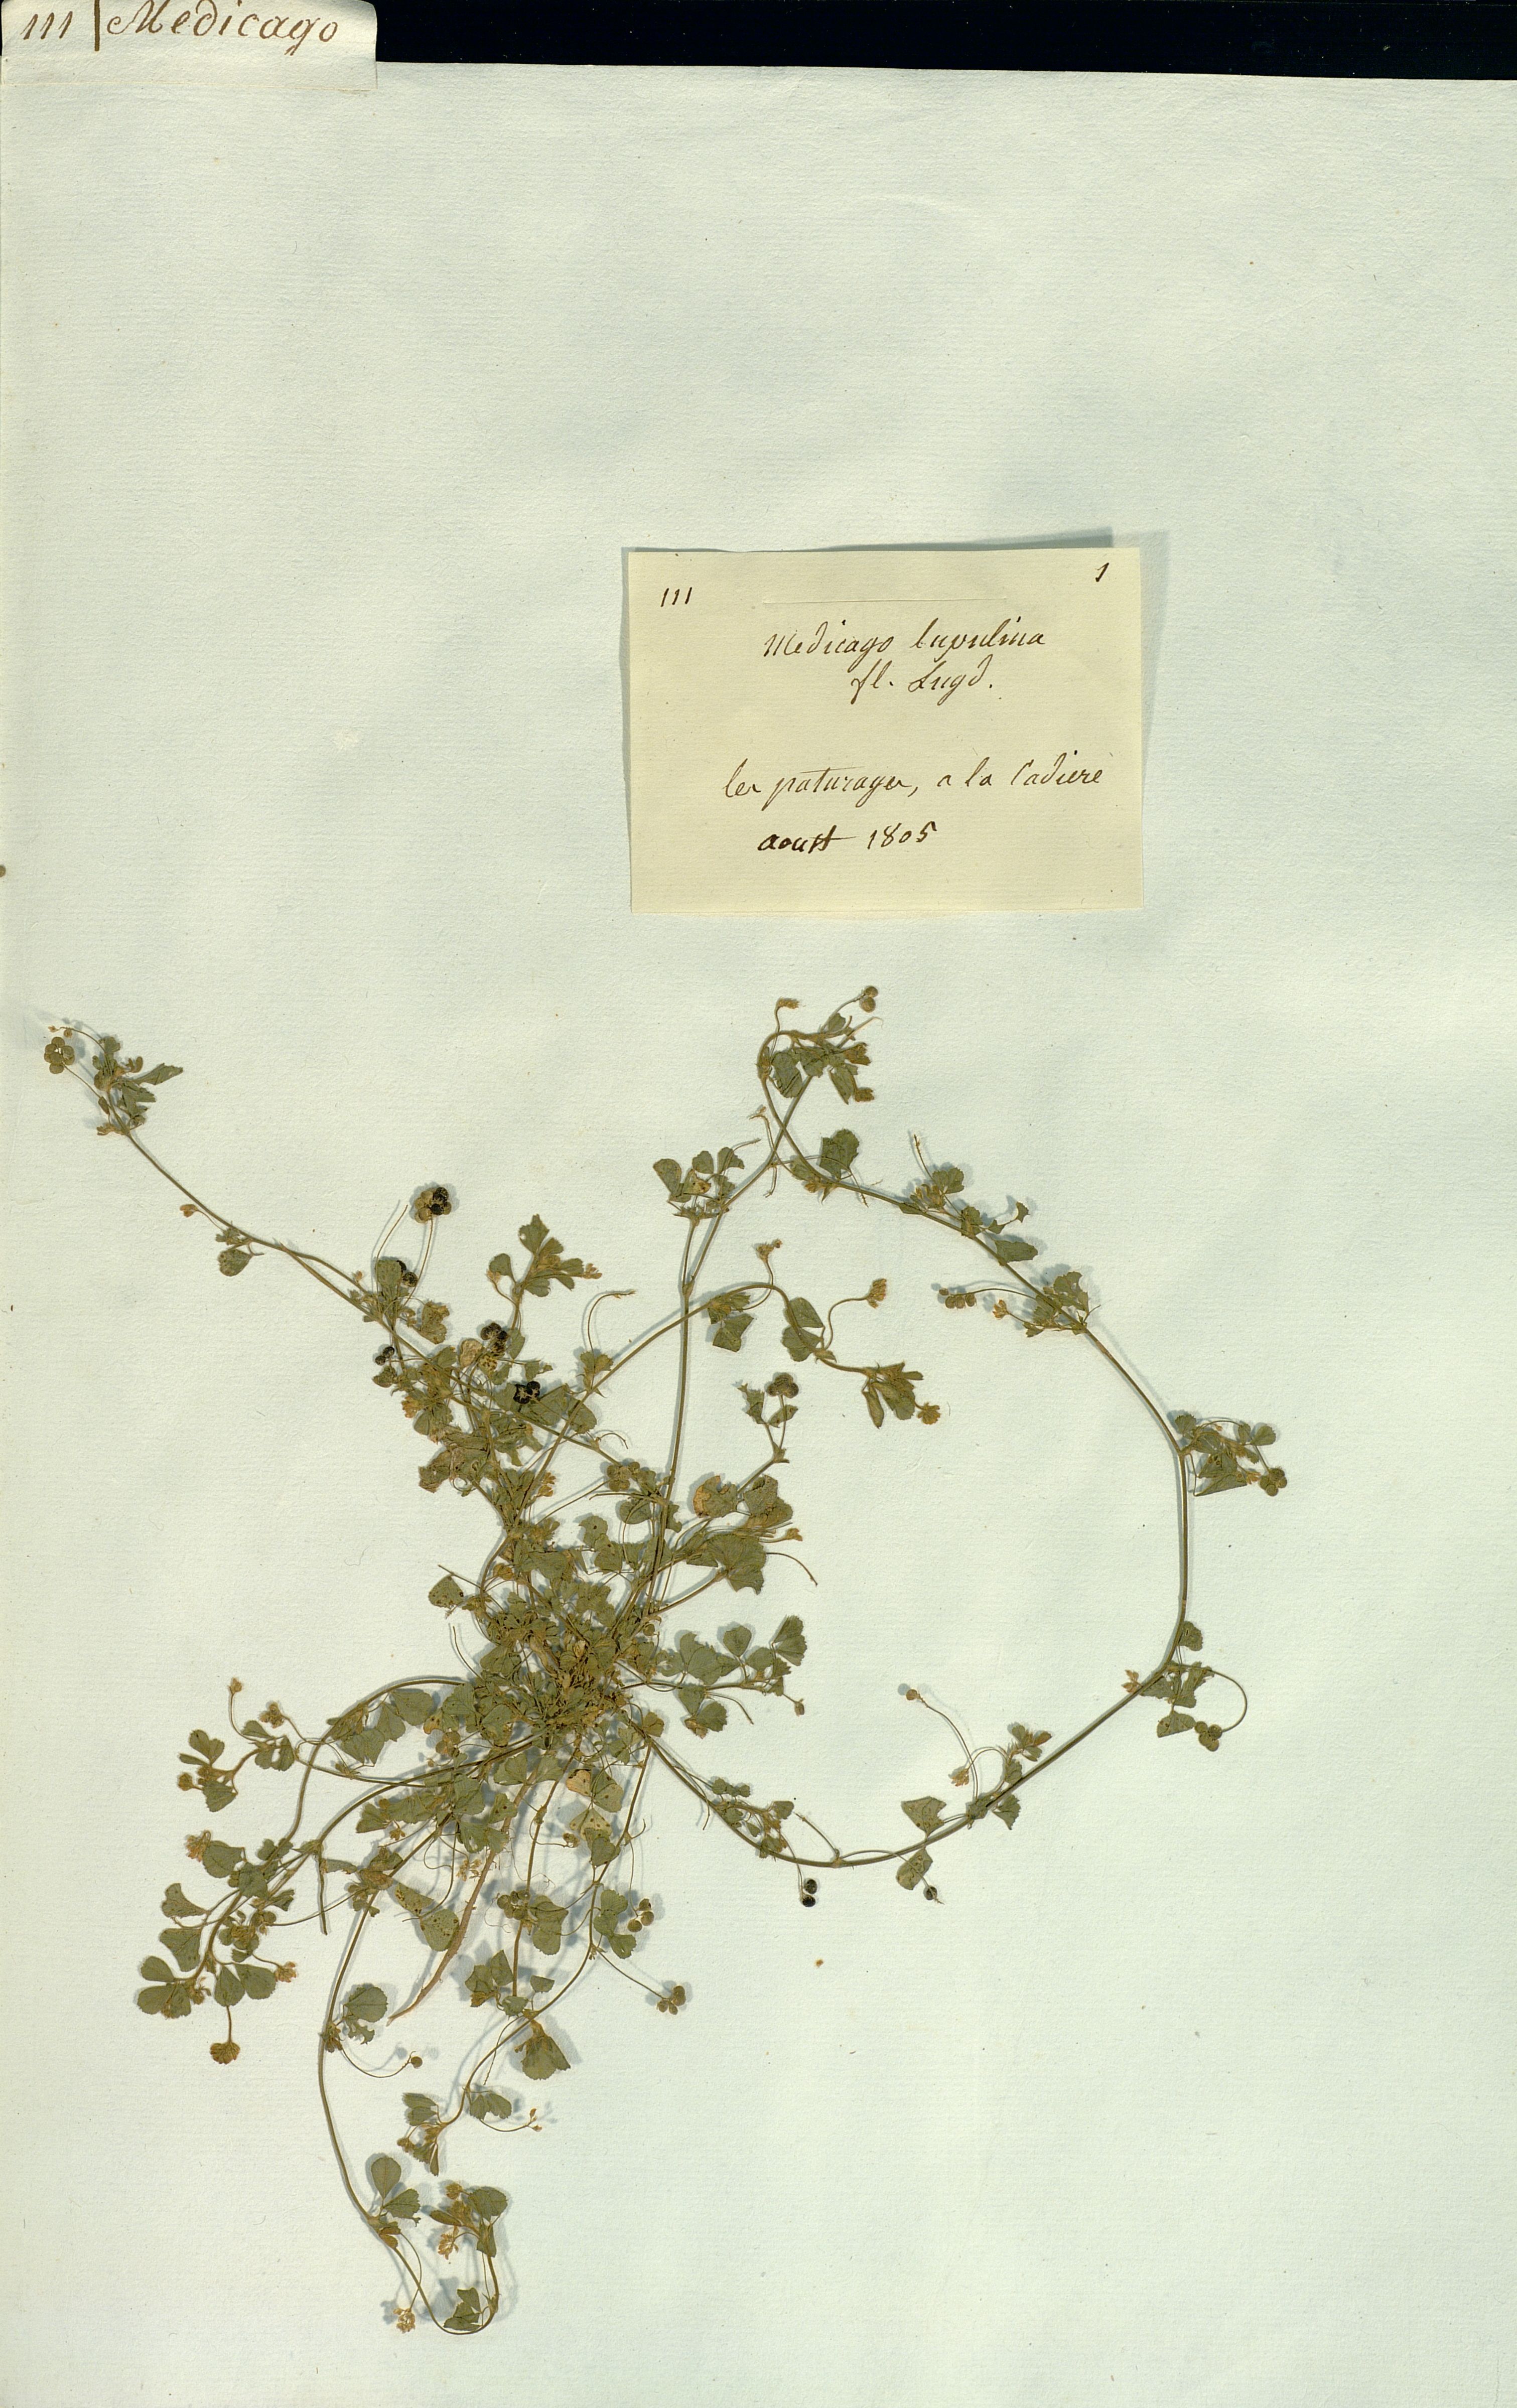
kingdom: Plantae
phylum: Tracheophyta
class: Magnoliopsida
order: Fabales
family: Fabaceae
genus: Medicago
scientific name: Medicago lupulina
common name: Black medick
